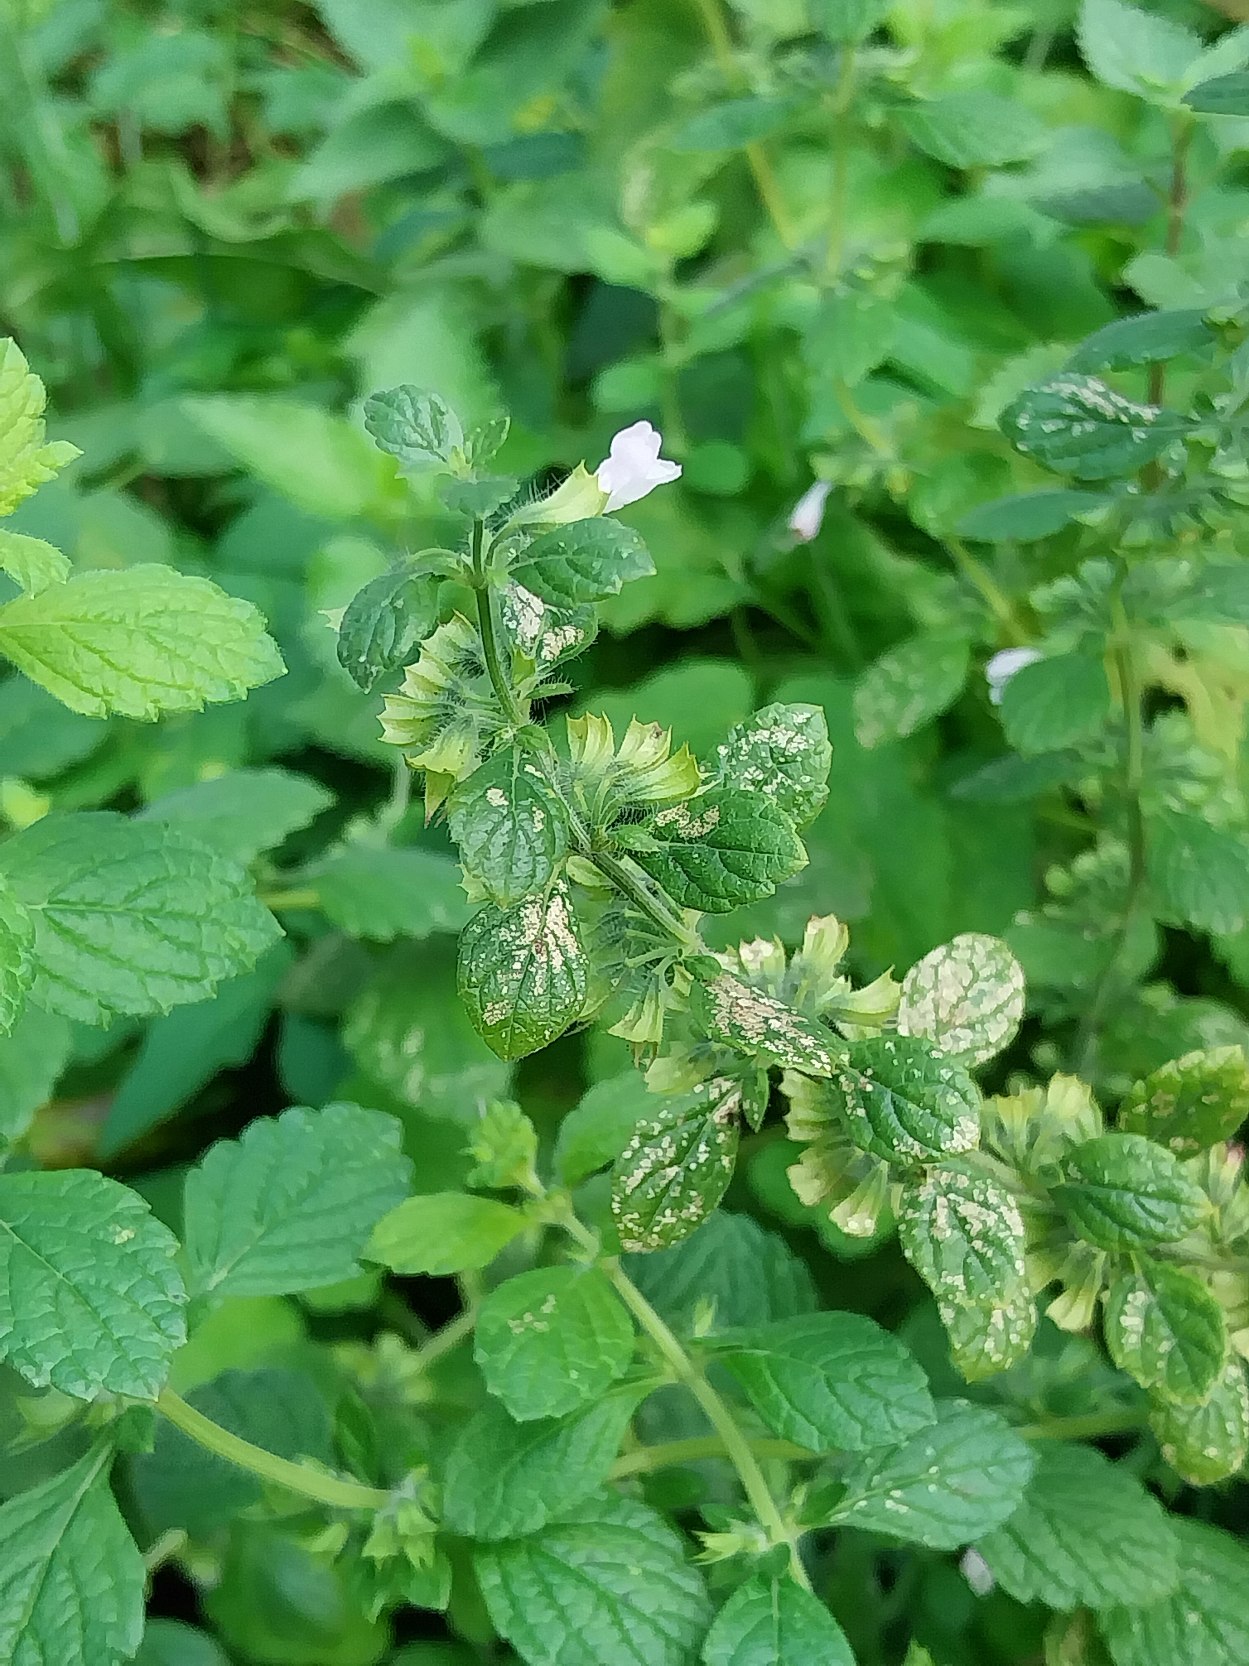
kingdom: Plantae
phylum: Tracheophyta
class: Magnoliopsida
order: Lamiales
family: Lamiaceae
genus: Melissa
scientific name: Melissa officinalis
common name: Citronmelisse
